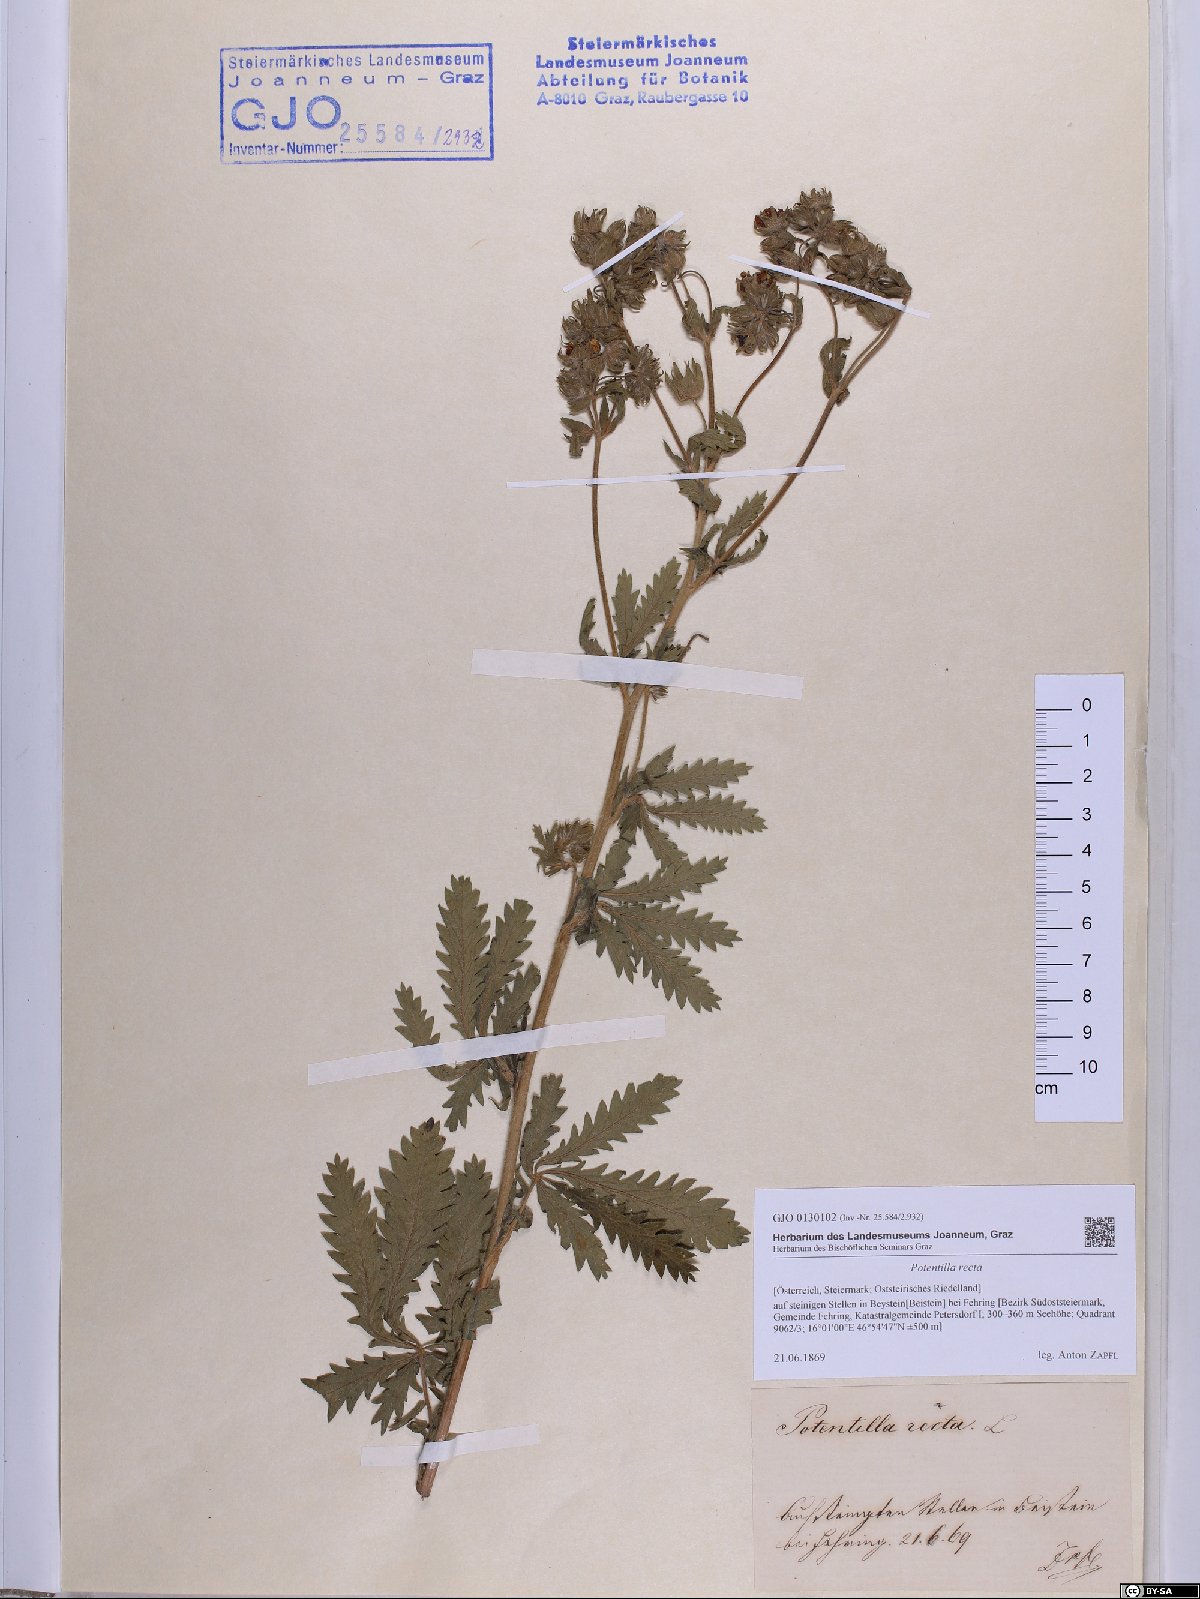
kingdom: Plantae
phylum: Tracheophyta
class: Magnoliopsida
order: Rosales
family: Rosaceae
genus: Potentilla
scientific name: Potentilla recta
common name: Sulphur cinquefoil
